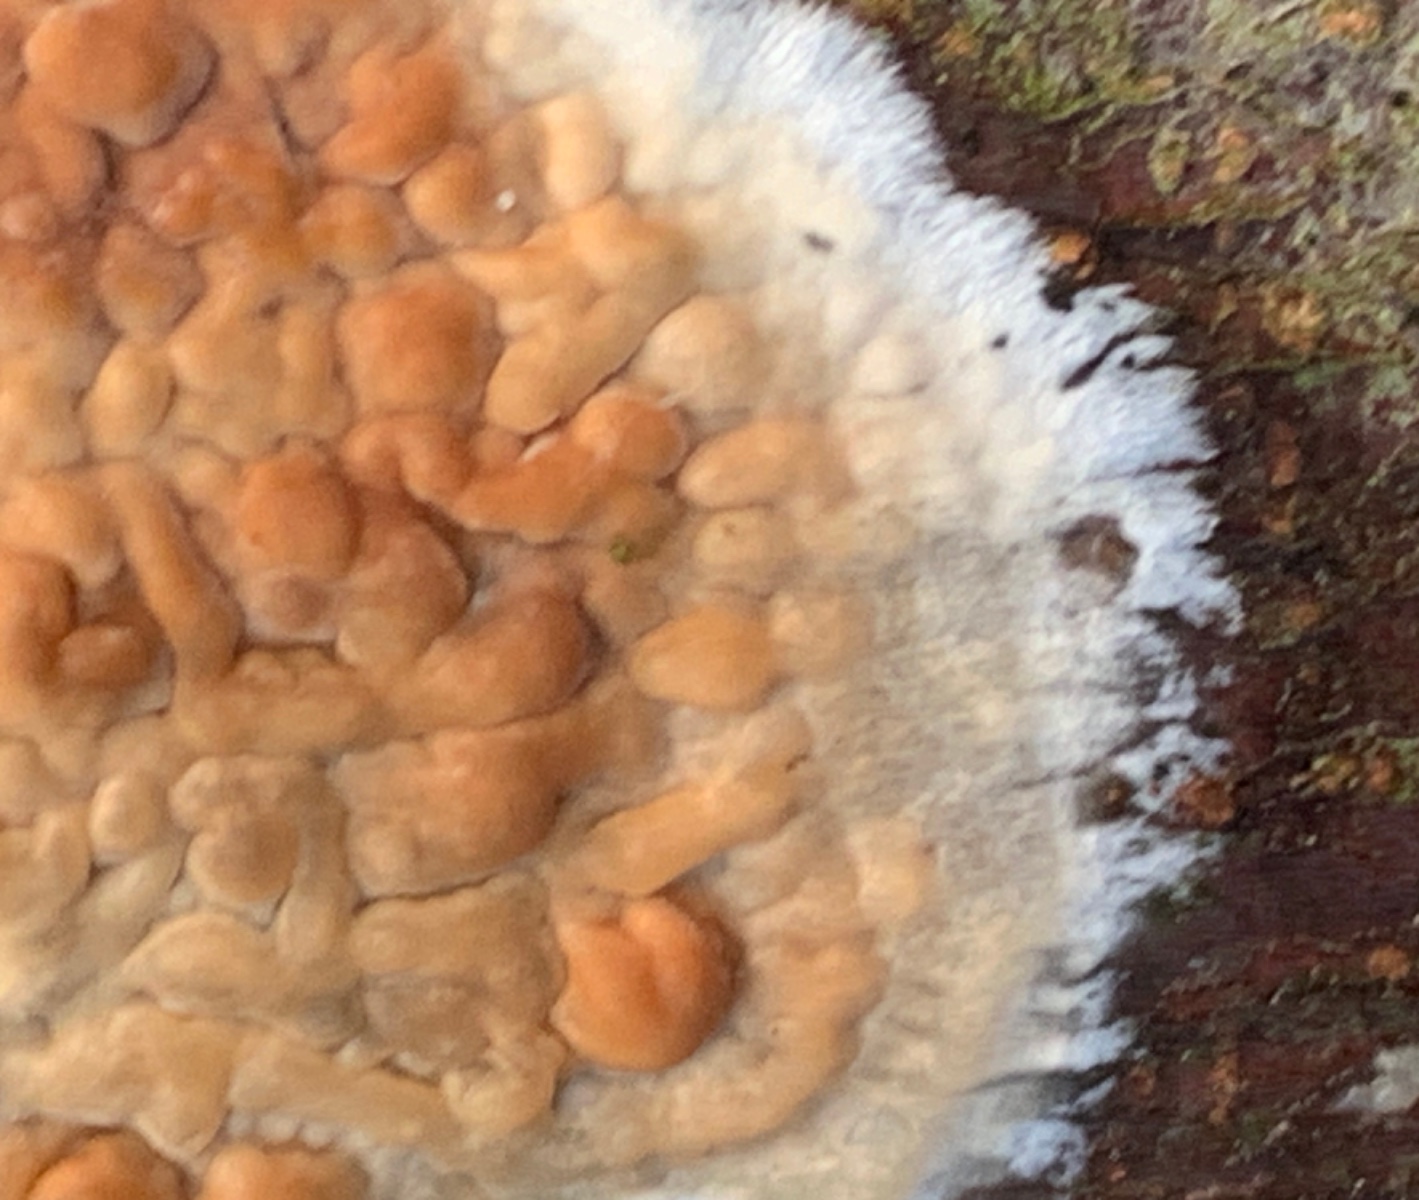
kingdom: Fungi
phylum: Basidiomycota
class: Agaricomycetes
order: Agaricales
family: Physalacriaceae
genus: Cylindrobasidium
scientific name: Cylindrobasidium evolvens
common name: sprækkehinde
